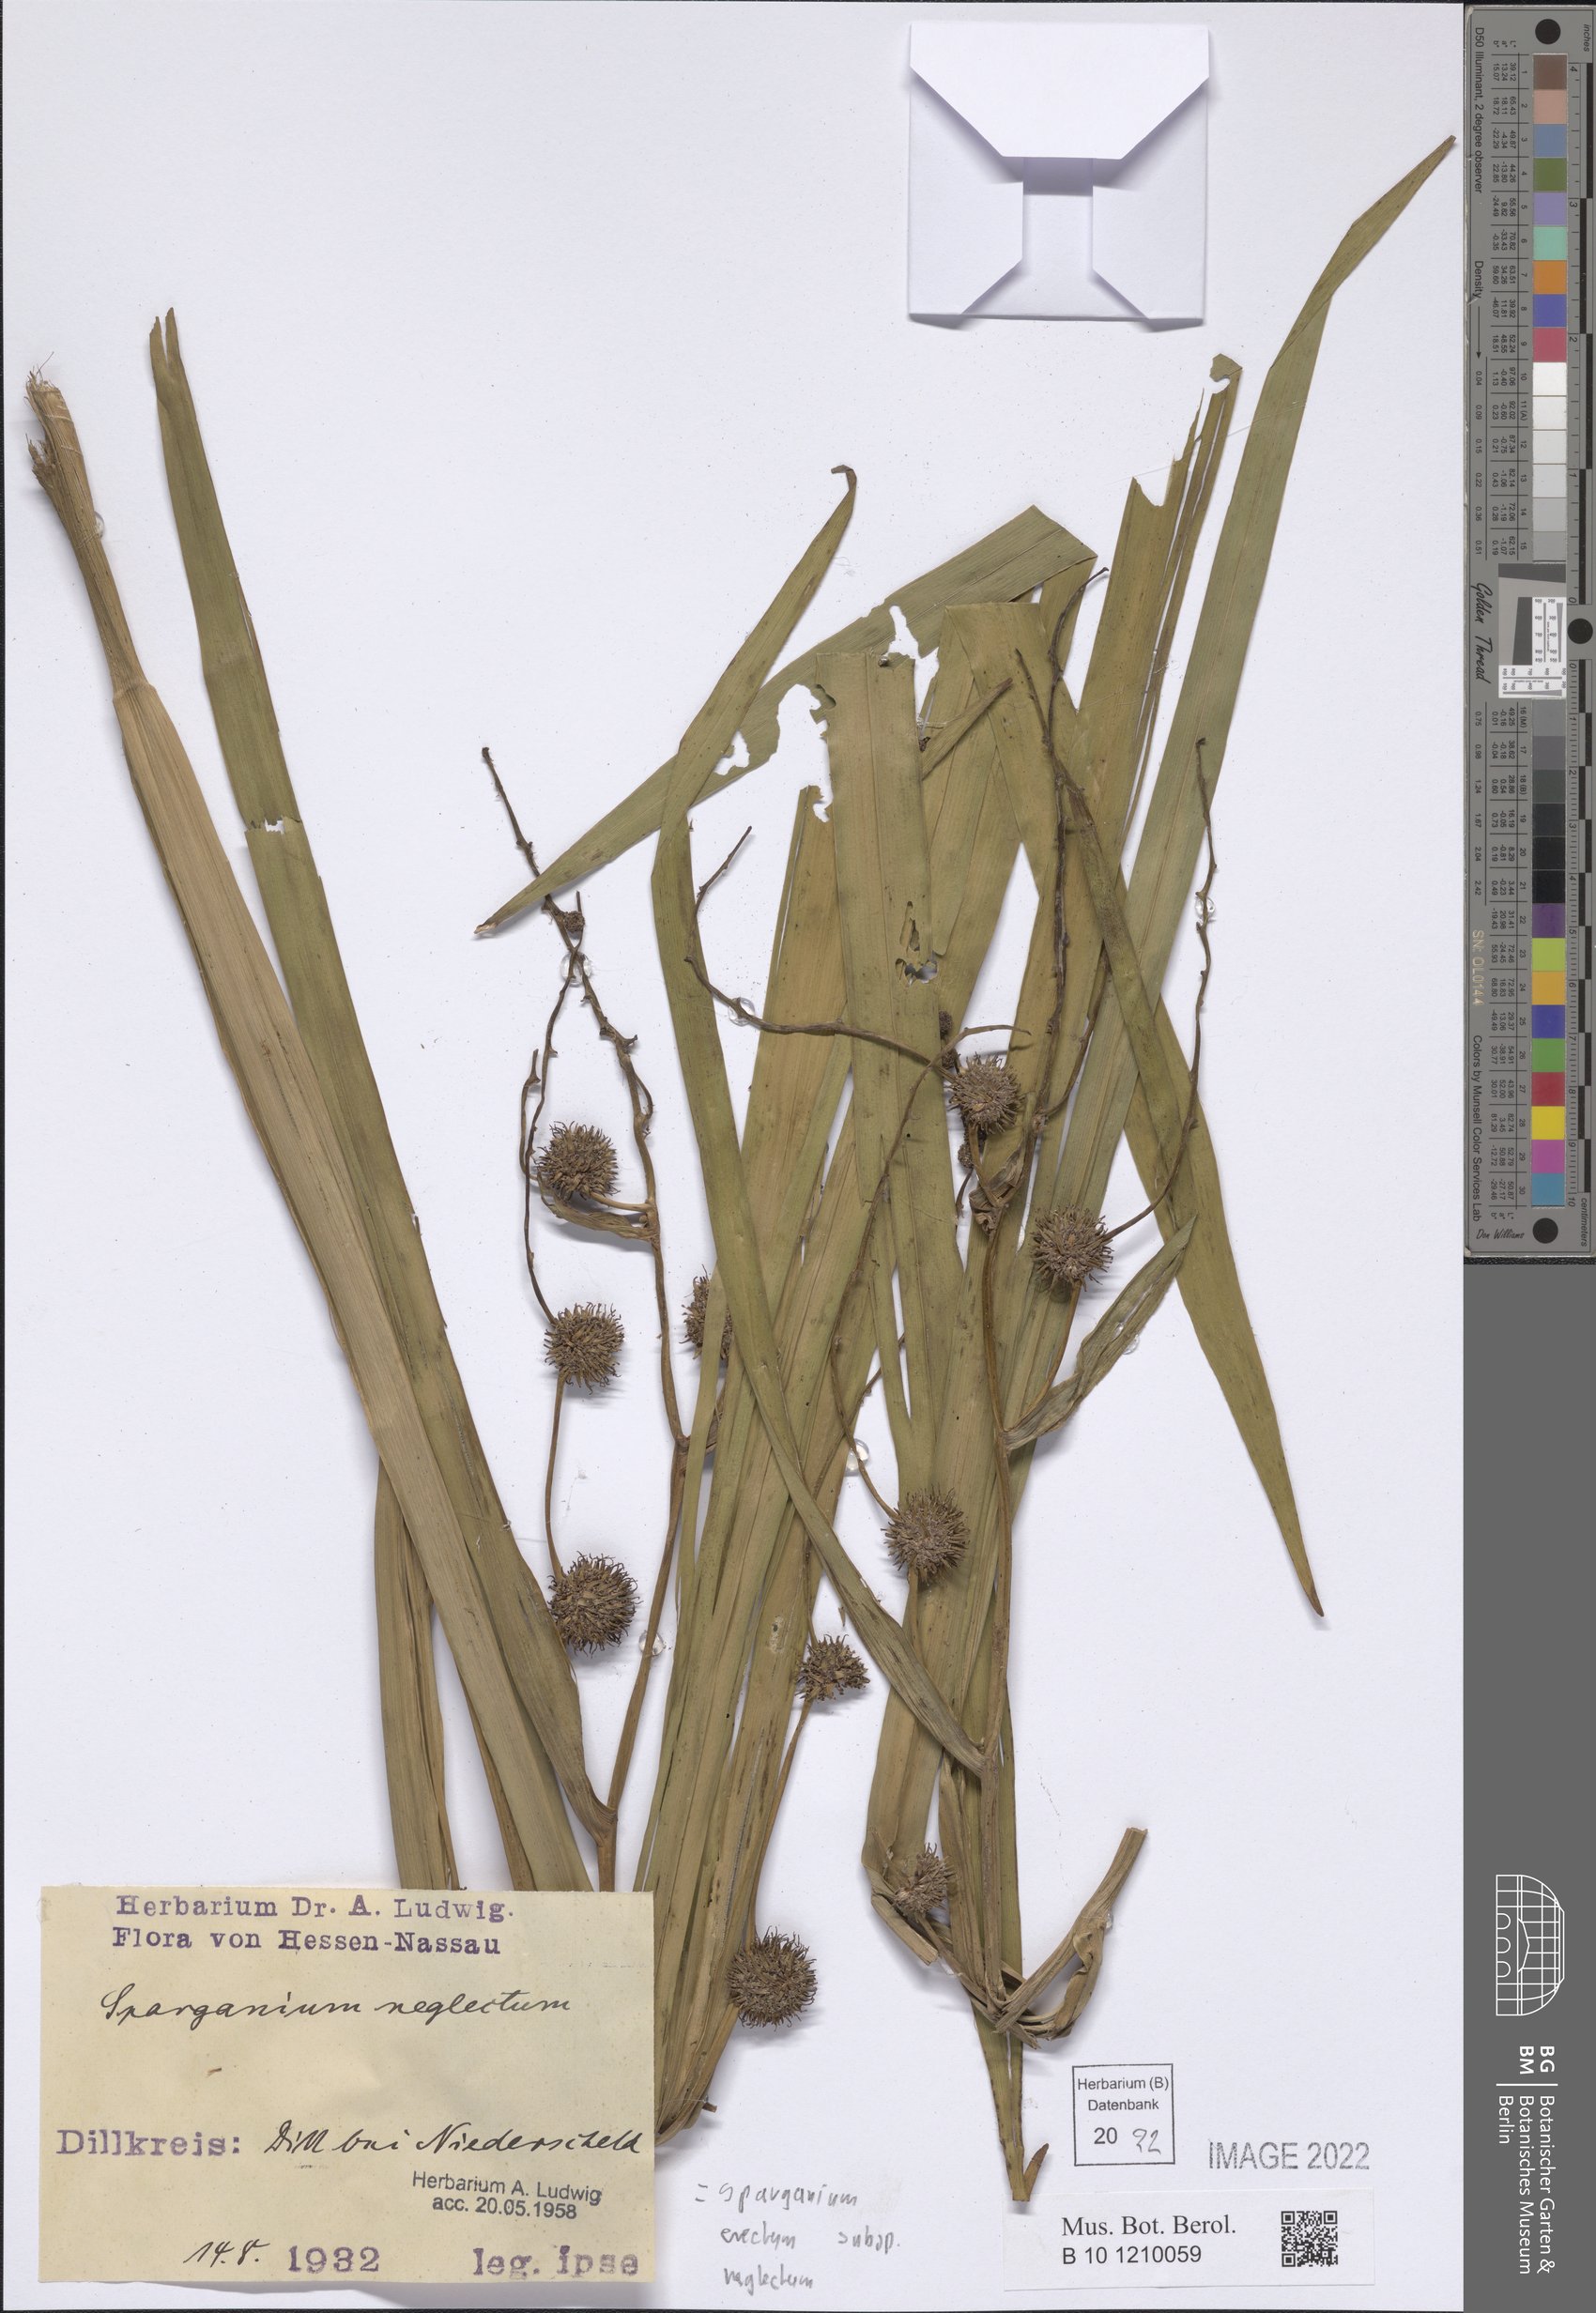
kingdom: Plantae
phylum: Tracheophyta
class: Liliopsida
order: Poales
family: Typhaceae
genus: Sparganium
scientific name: Sparganium erectum
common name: Branched bur-reed
